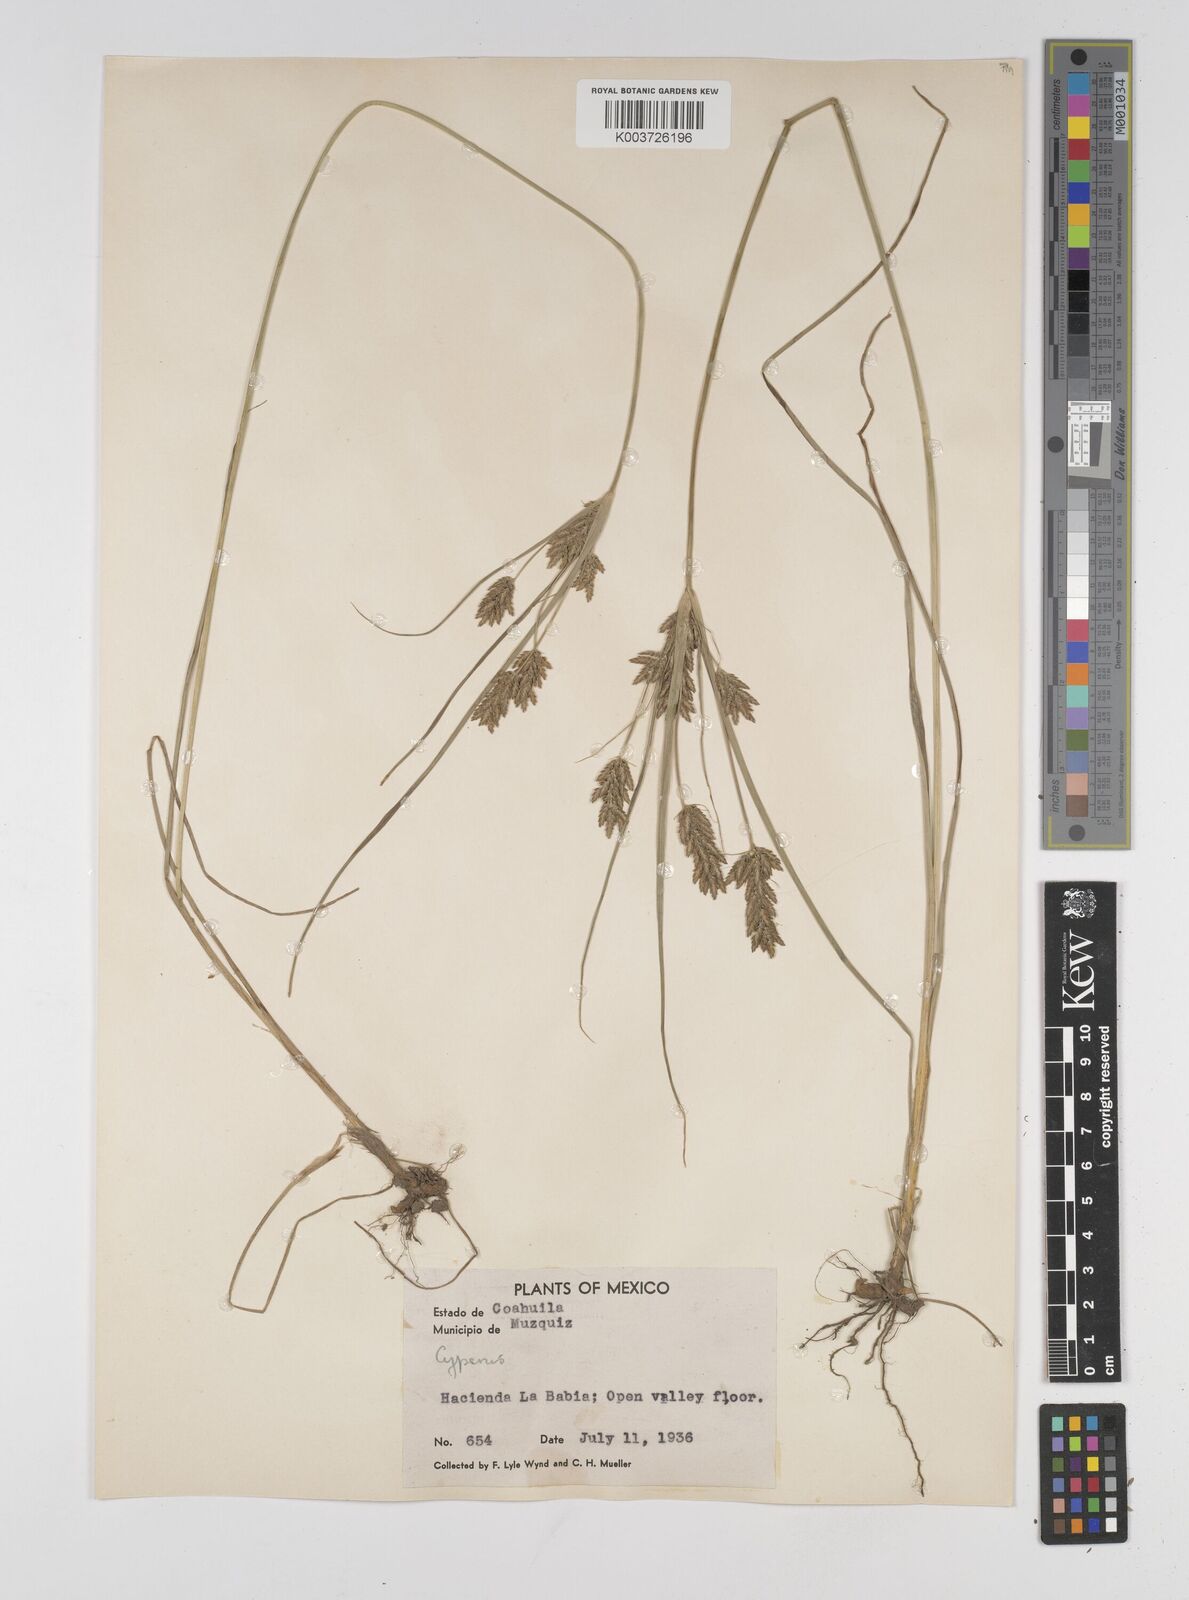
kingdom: Plantae
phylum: Tracheophyta
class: Liliopsida
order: Poales
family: Cyperaceae
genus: Cyperus
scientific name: Cyperus sphaerolepis
